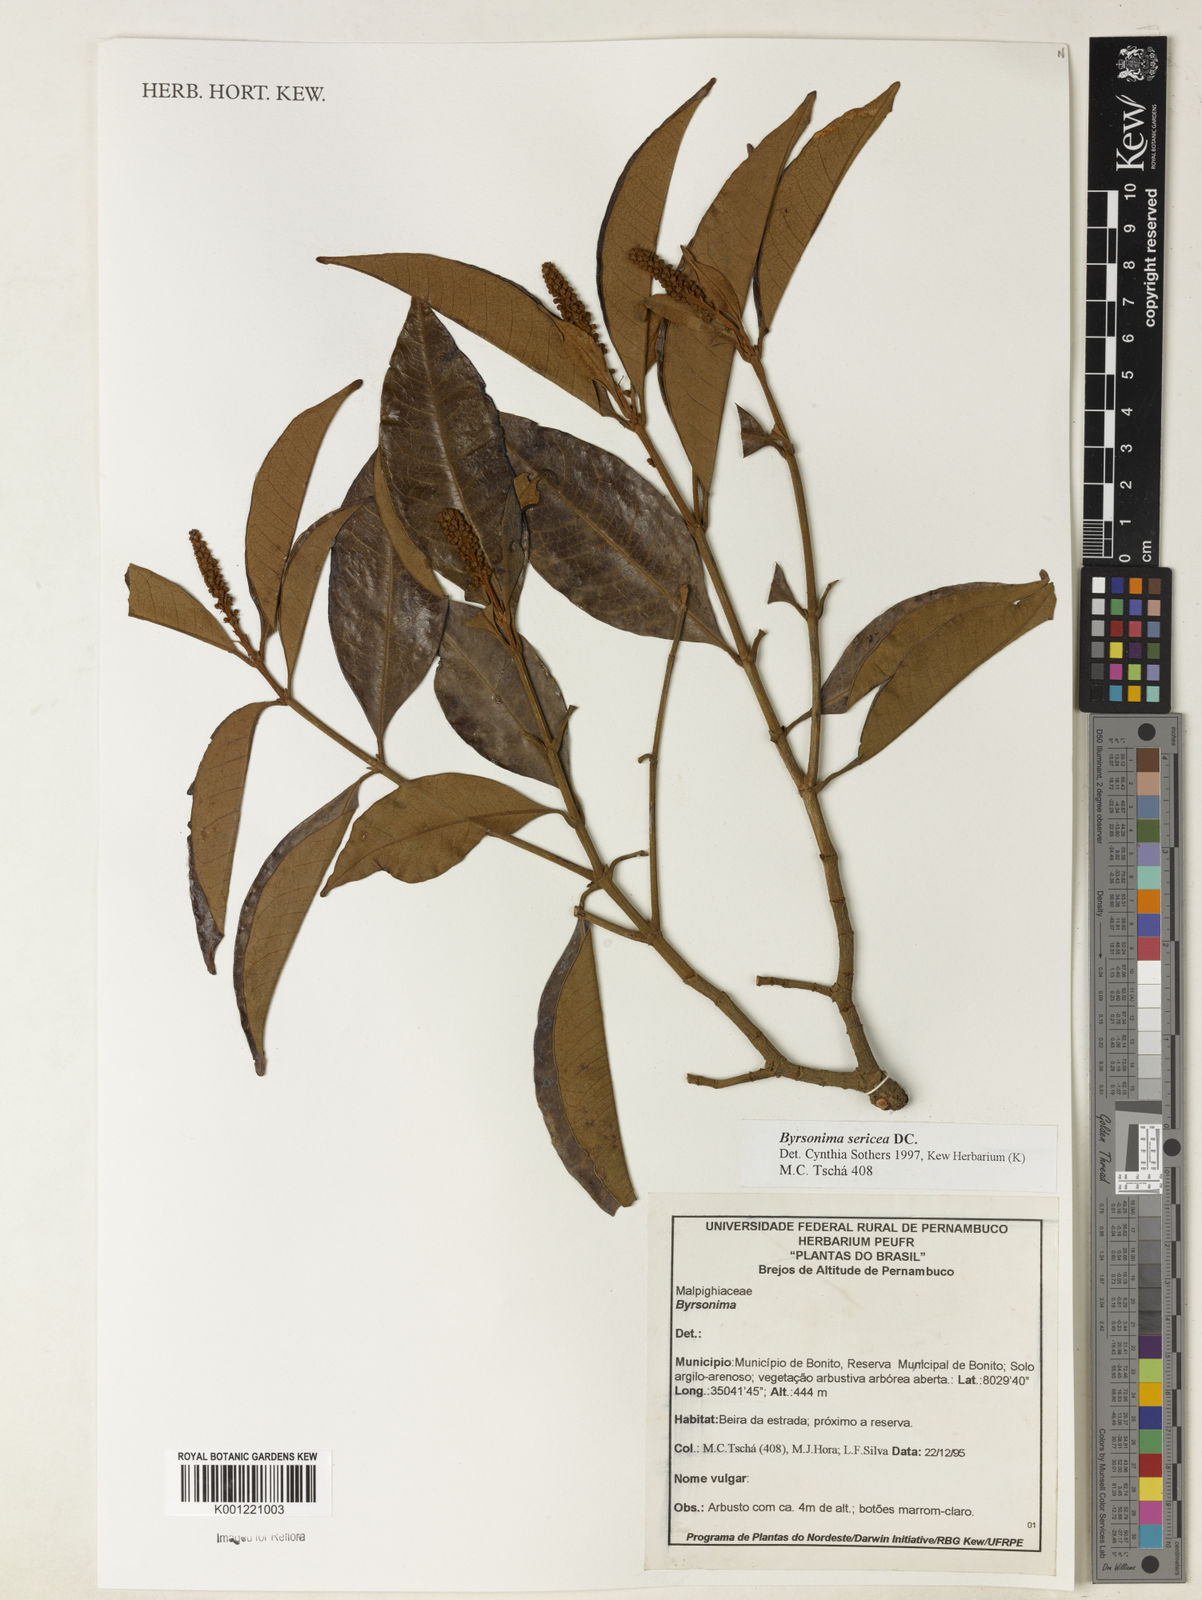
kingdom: Plantae
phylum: Tracheophyta
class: Magnoliopsida
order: Malpighiales
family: Malpighiaceae
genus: Byrsonima
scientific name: Byrsonima sericea
